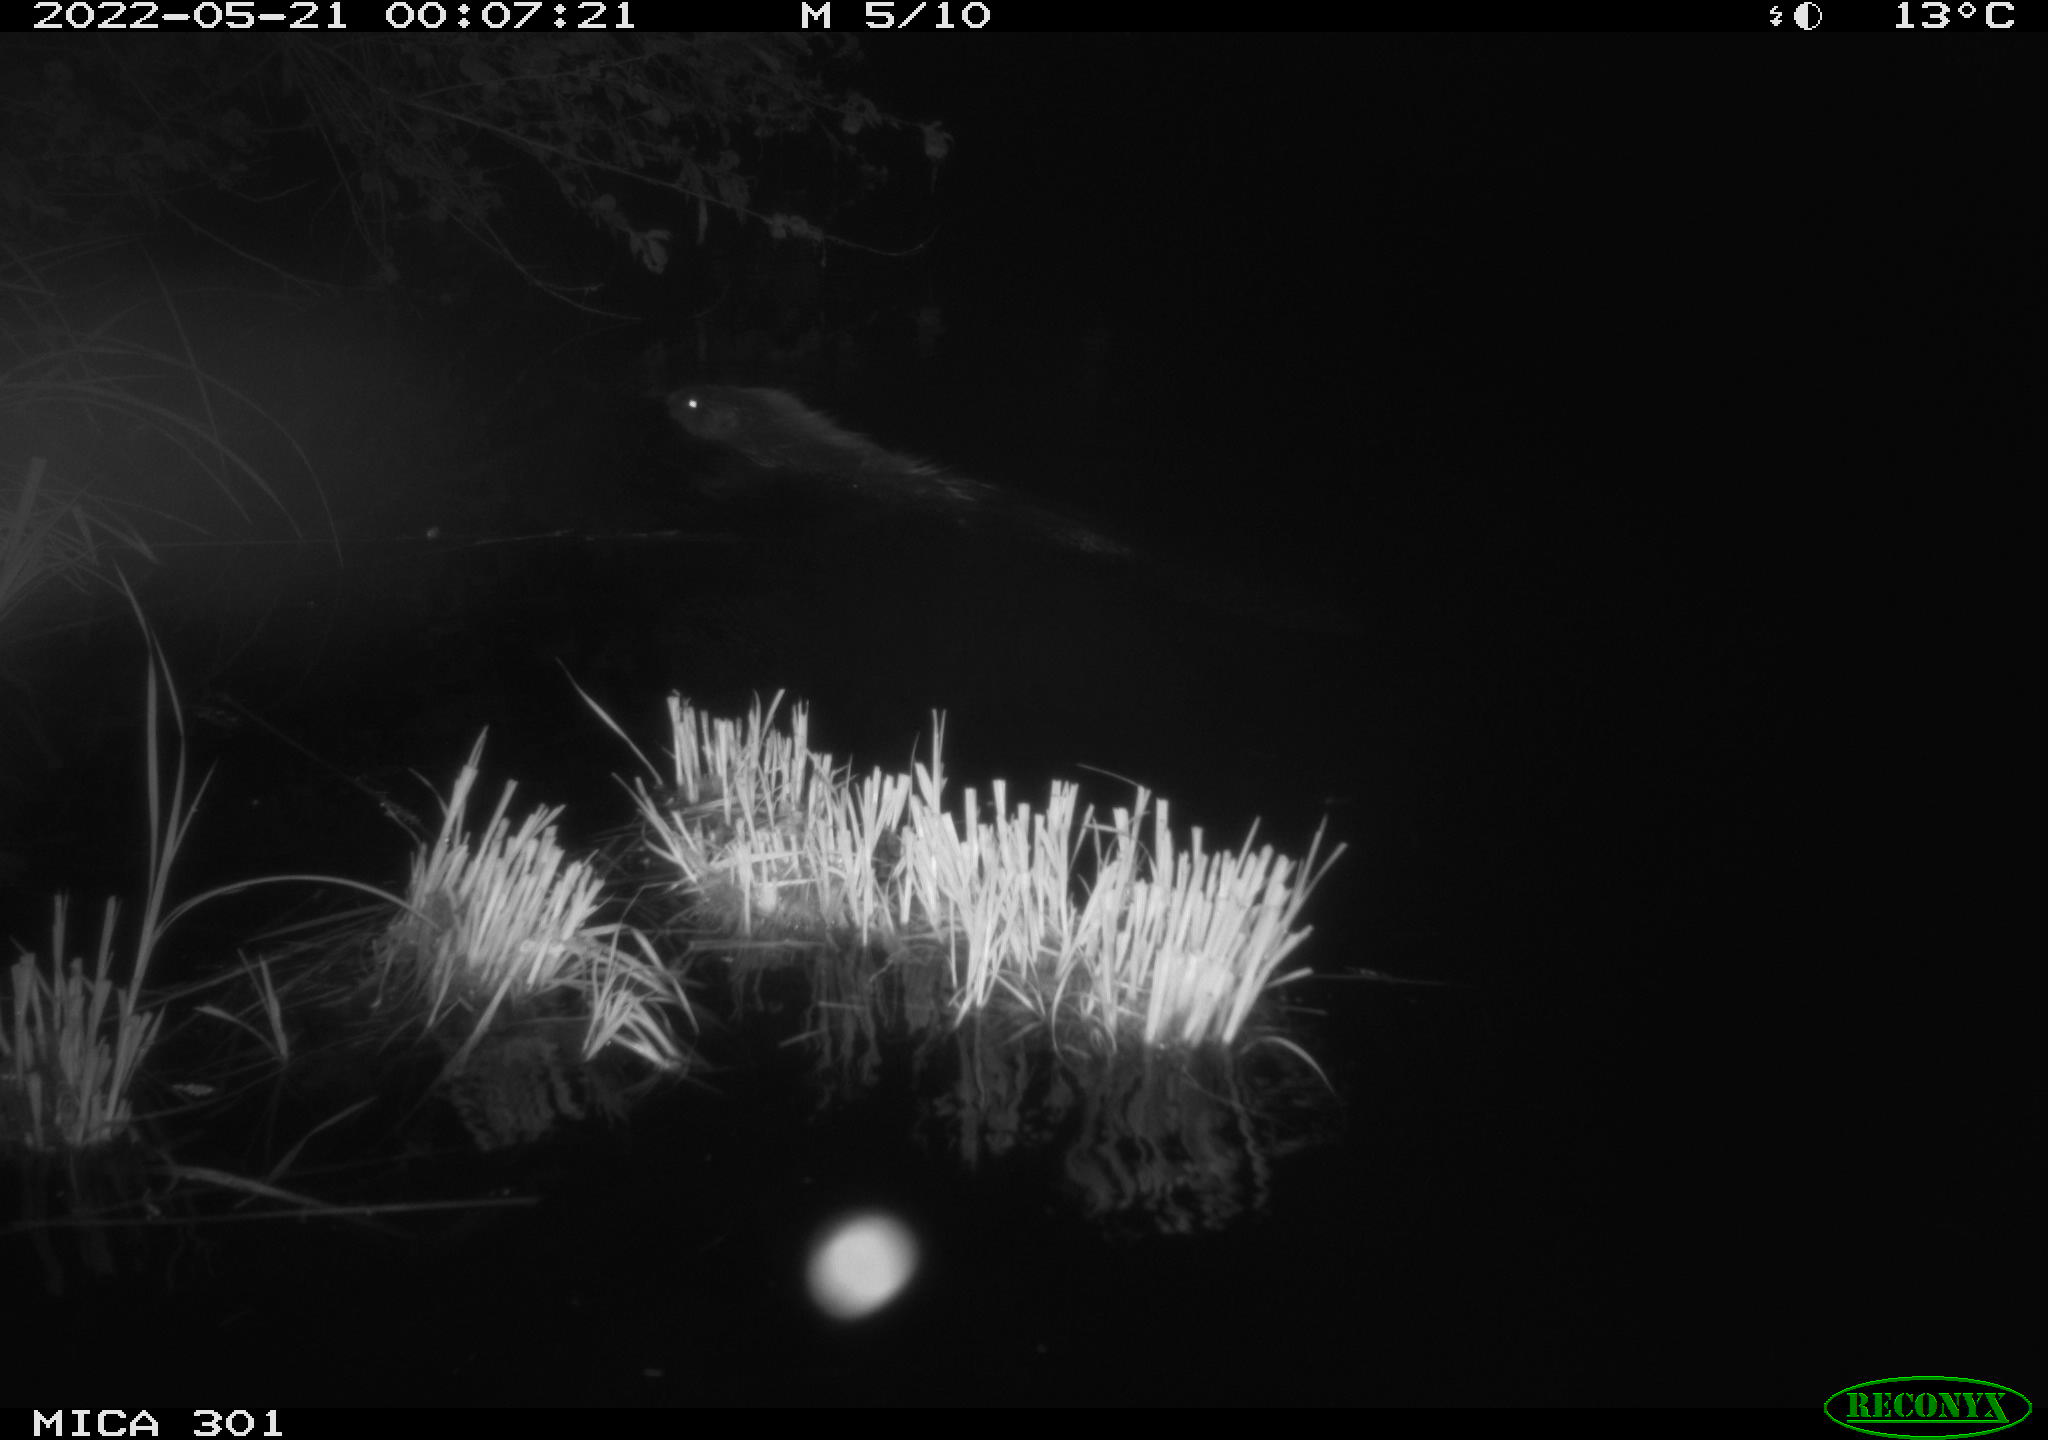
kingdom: Animalia
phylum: Chordata
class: Mammalia
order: Rodentia
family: Castoridae
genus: Castor
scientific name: Castor fiber
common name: Eurasian beaver
